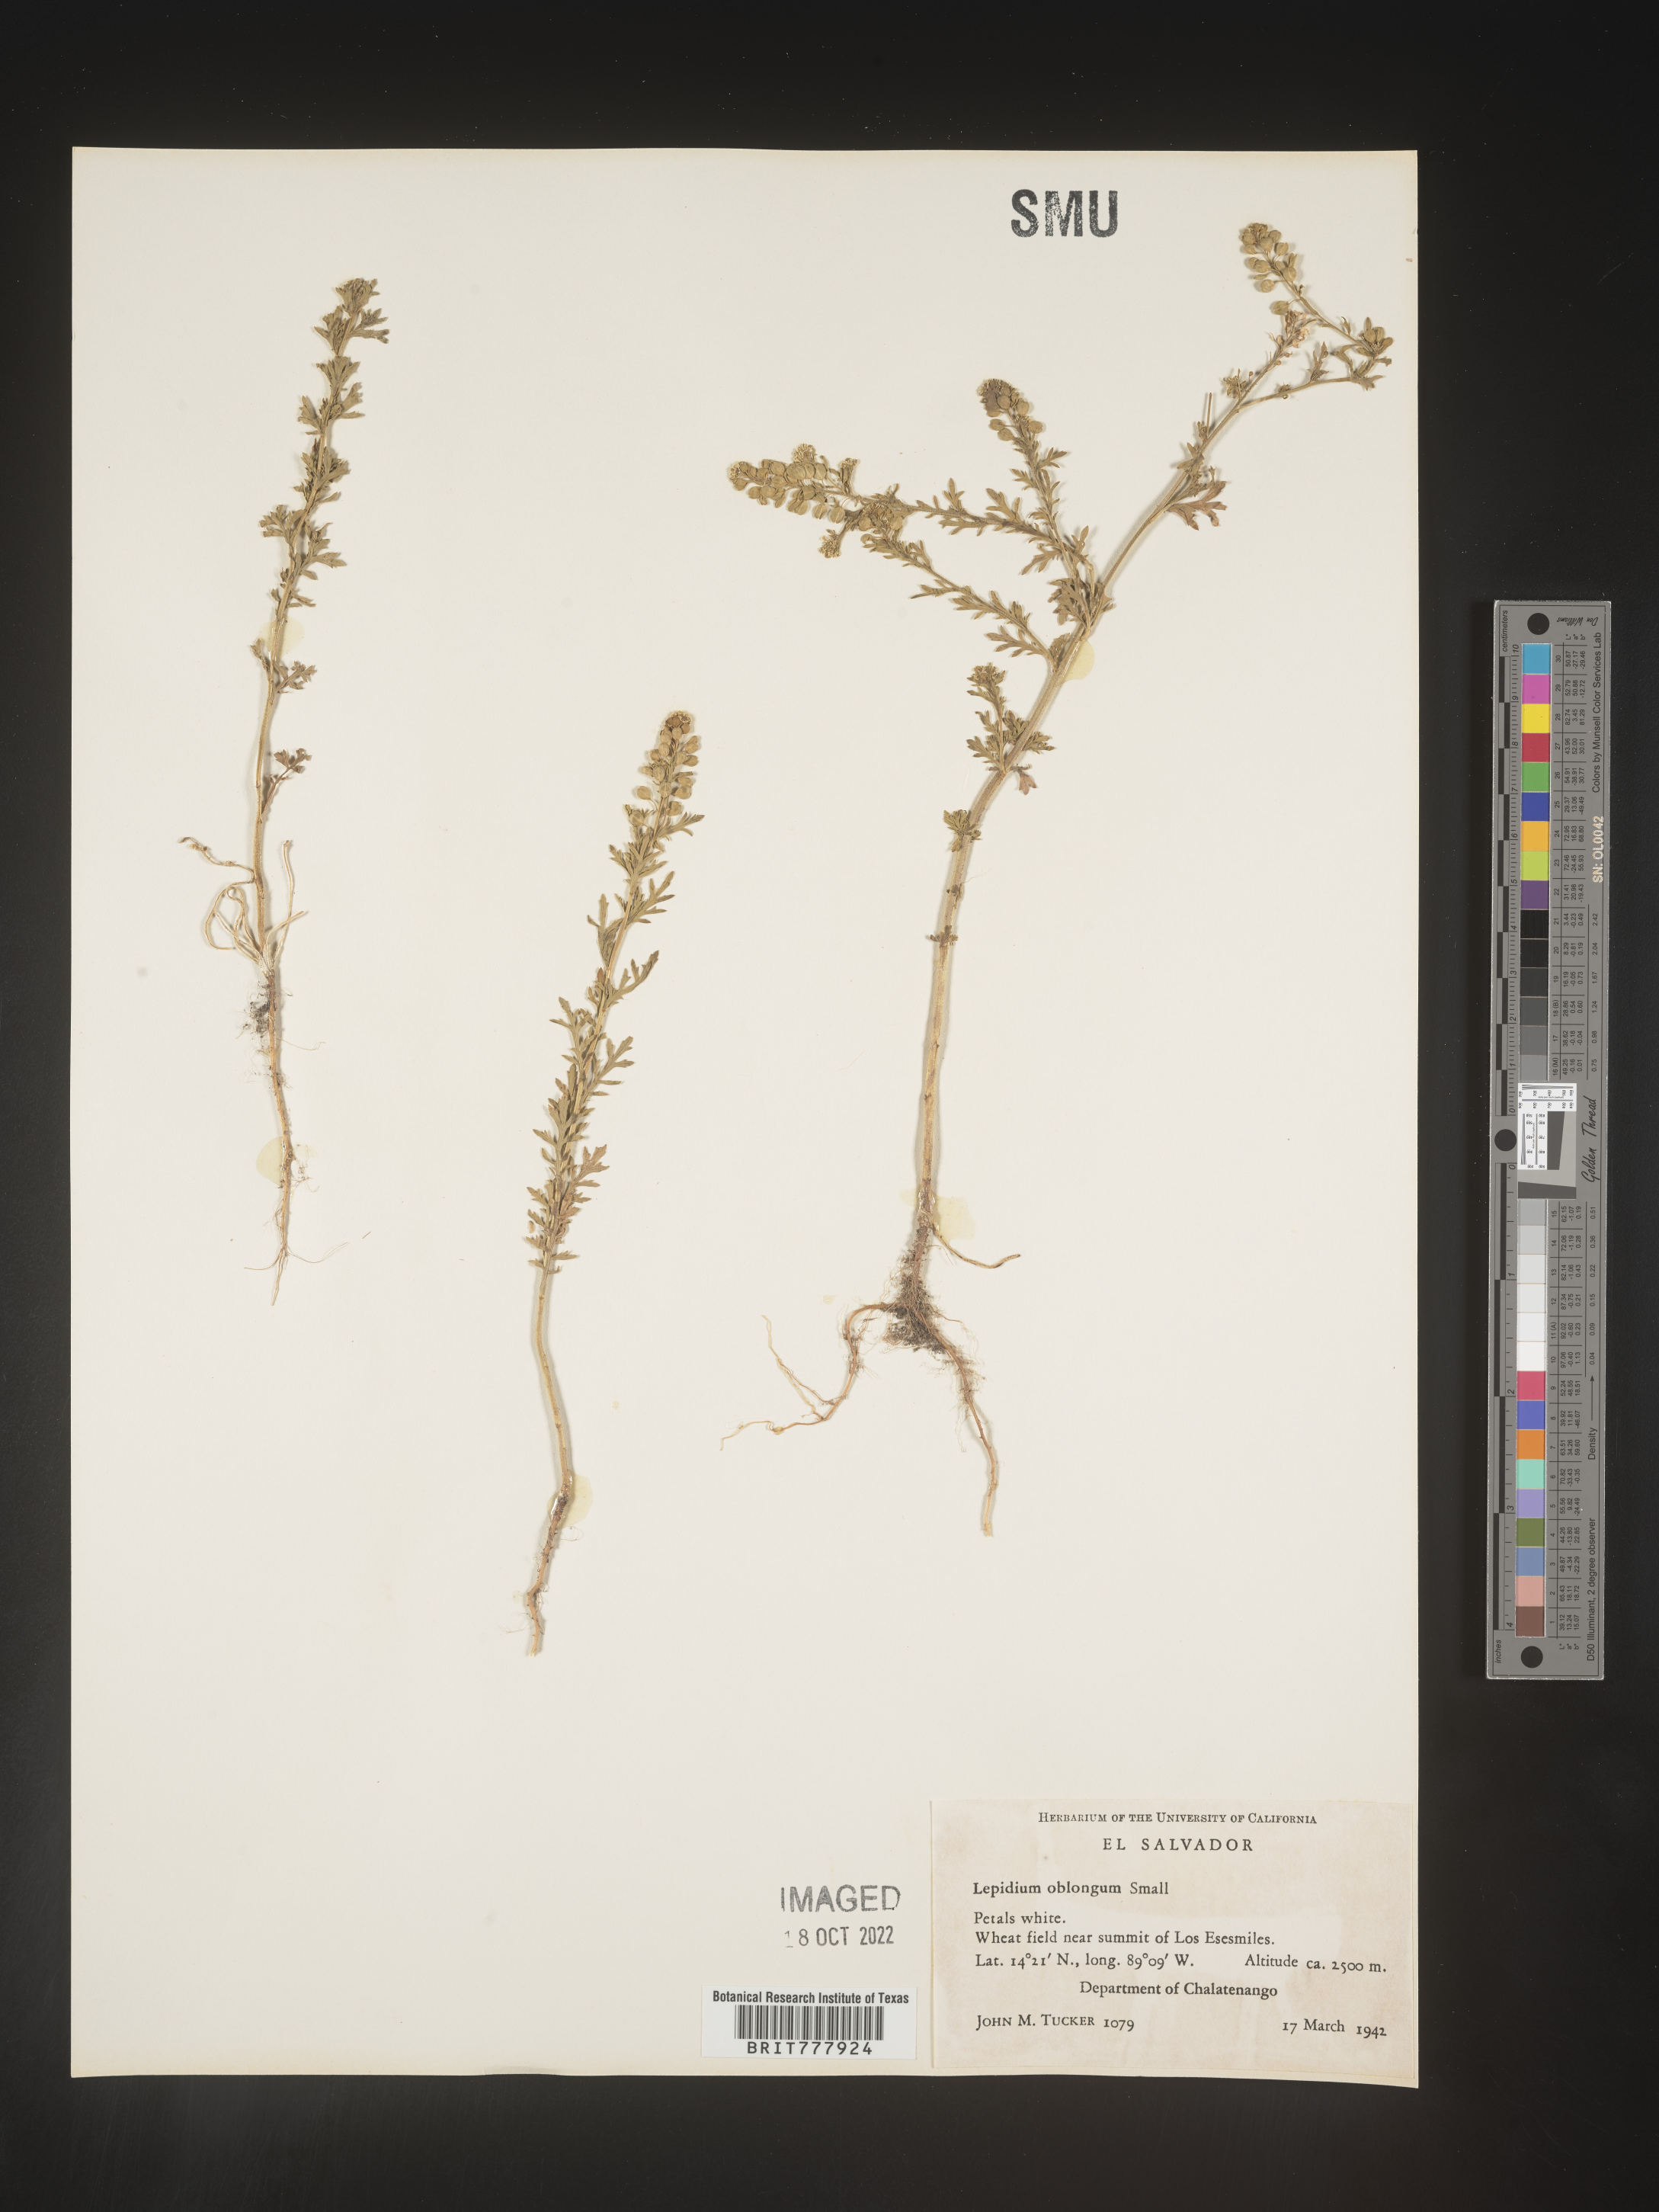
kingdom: Plantae
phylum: Tracheophyta
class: Magnoliopsida
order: Brassicales
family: Brassicaceae
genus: Lepidium
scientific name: Lepidium
